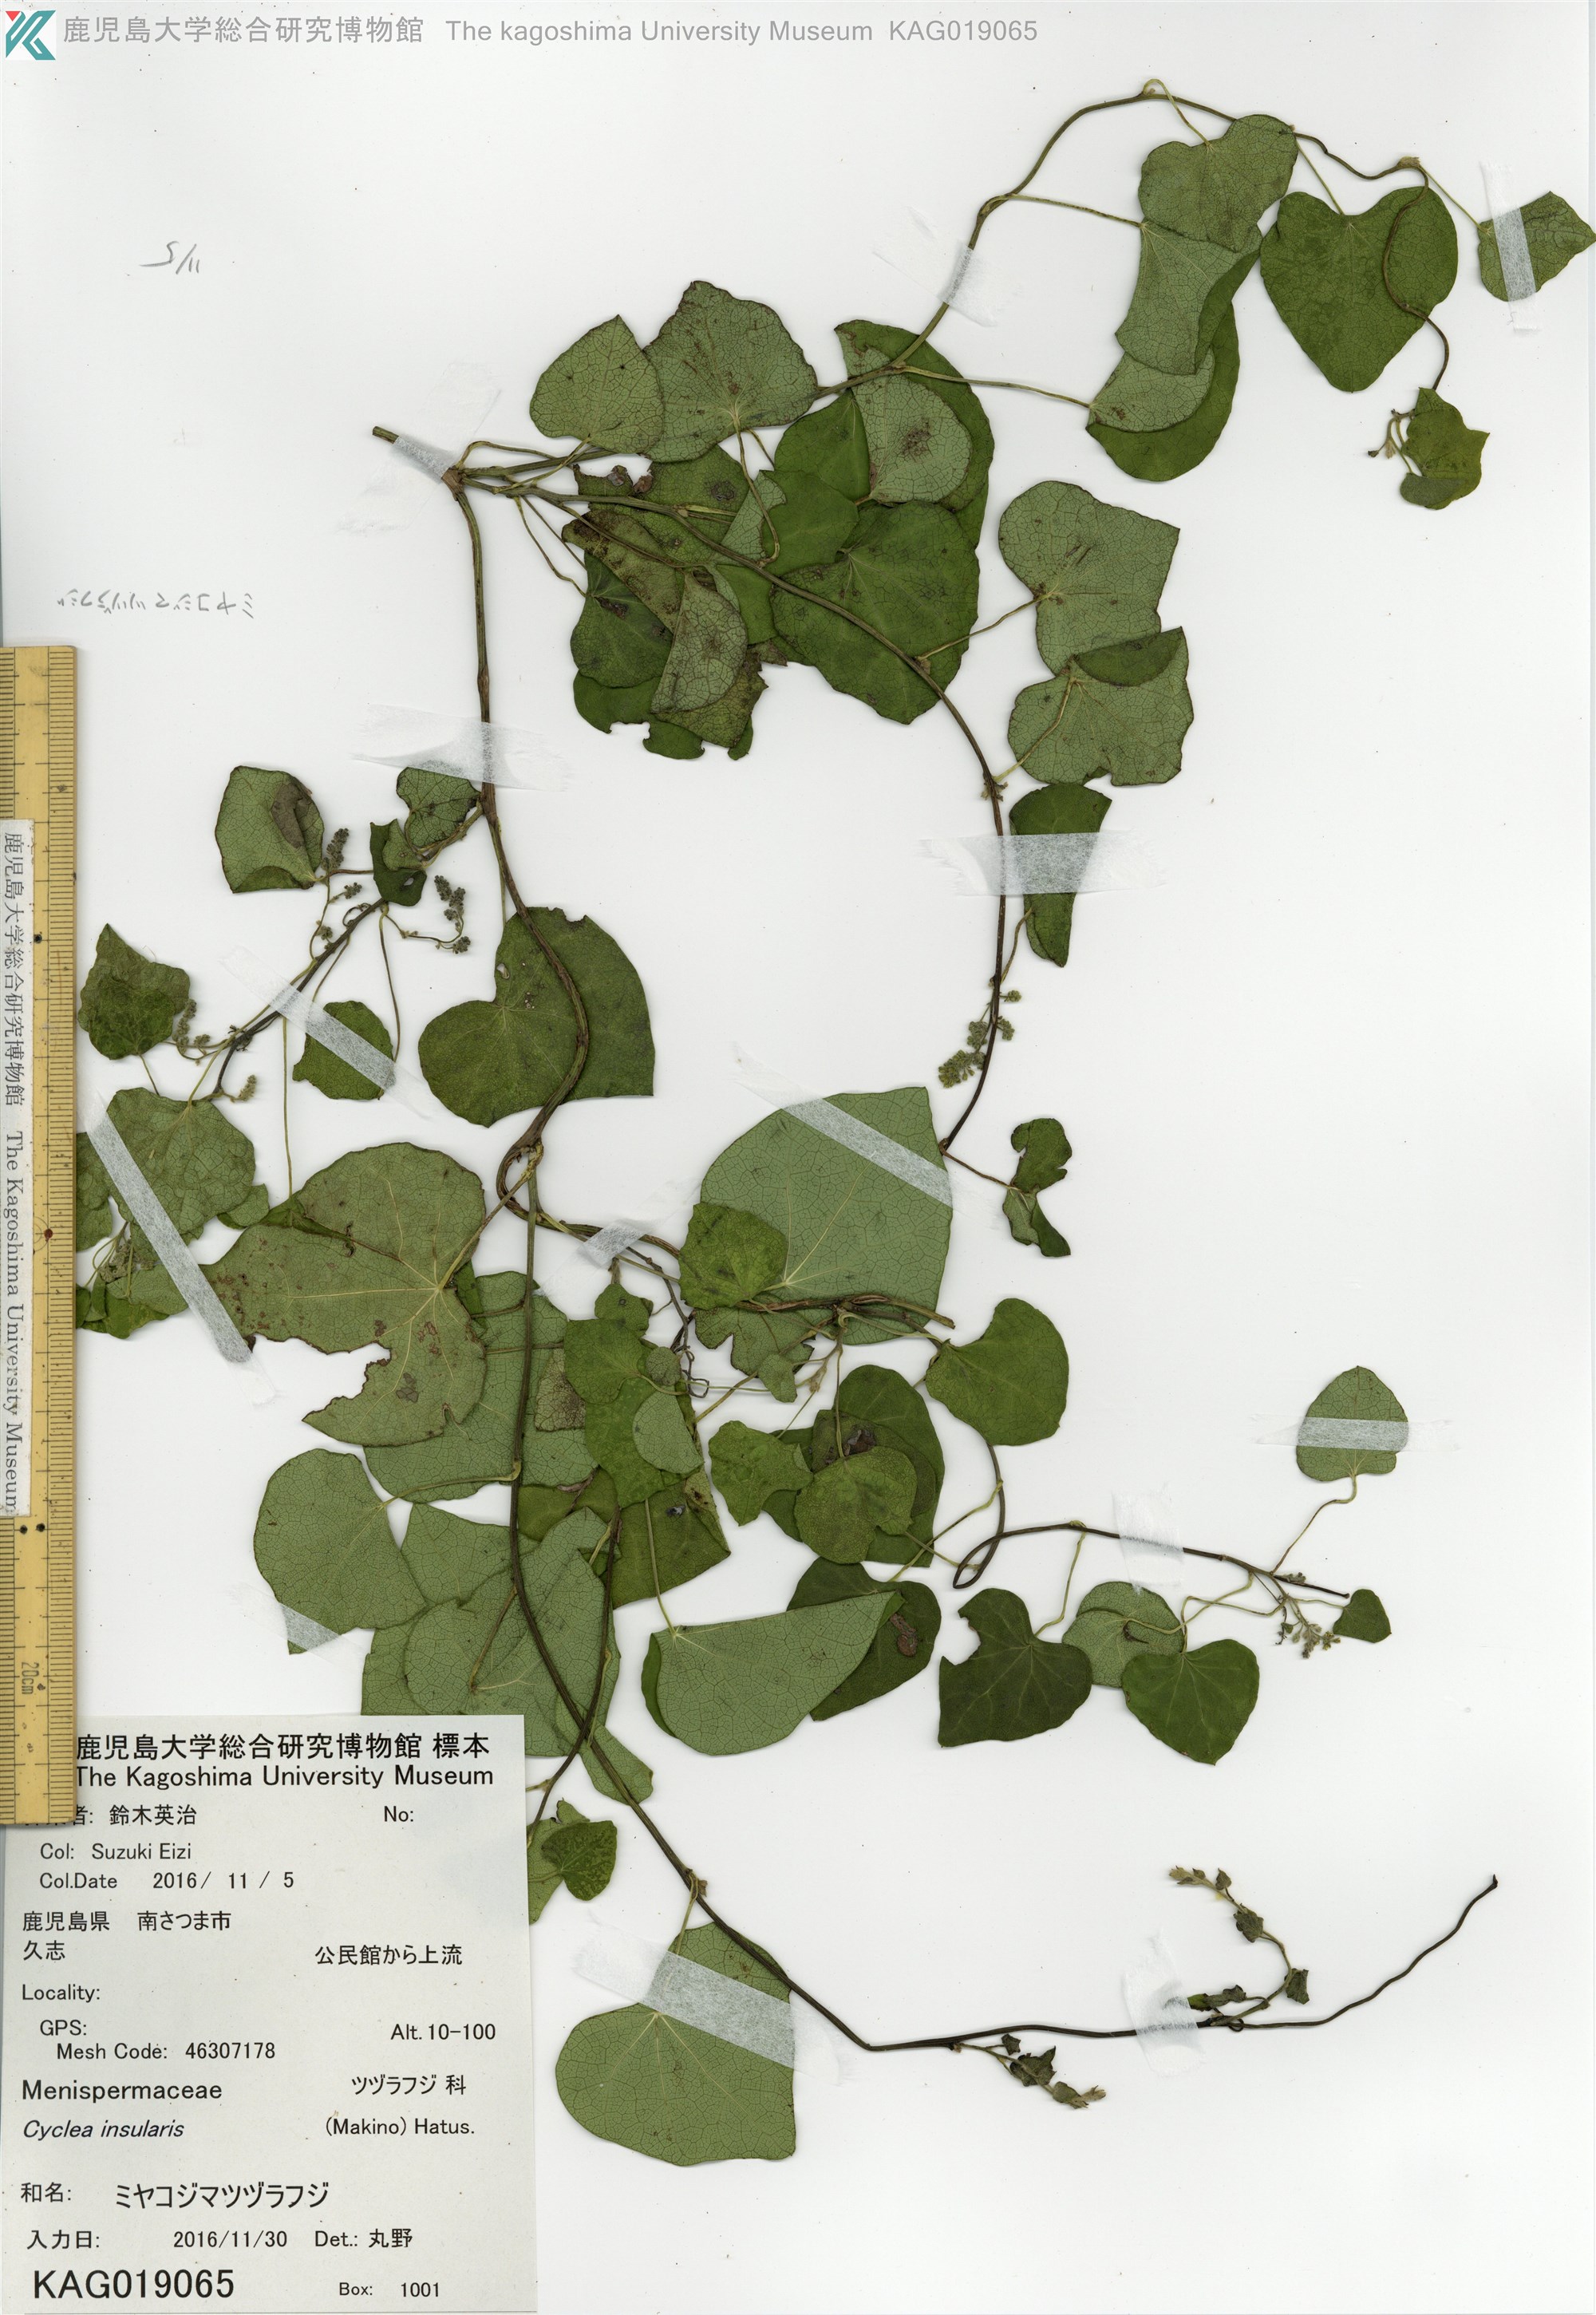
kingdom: Plantae
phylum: Tracheophyta
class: Magnoliopsida
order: Ranunculales
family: Menispermaceae
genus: Cyclea
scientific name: Cyclea insularis
